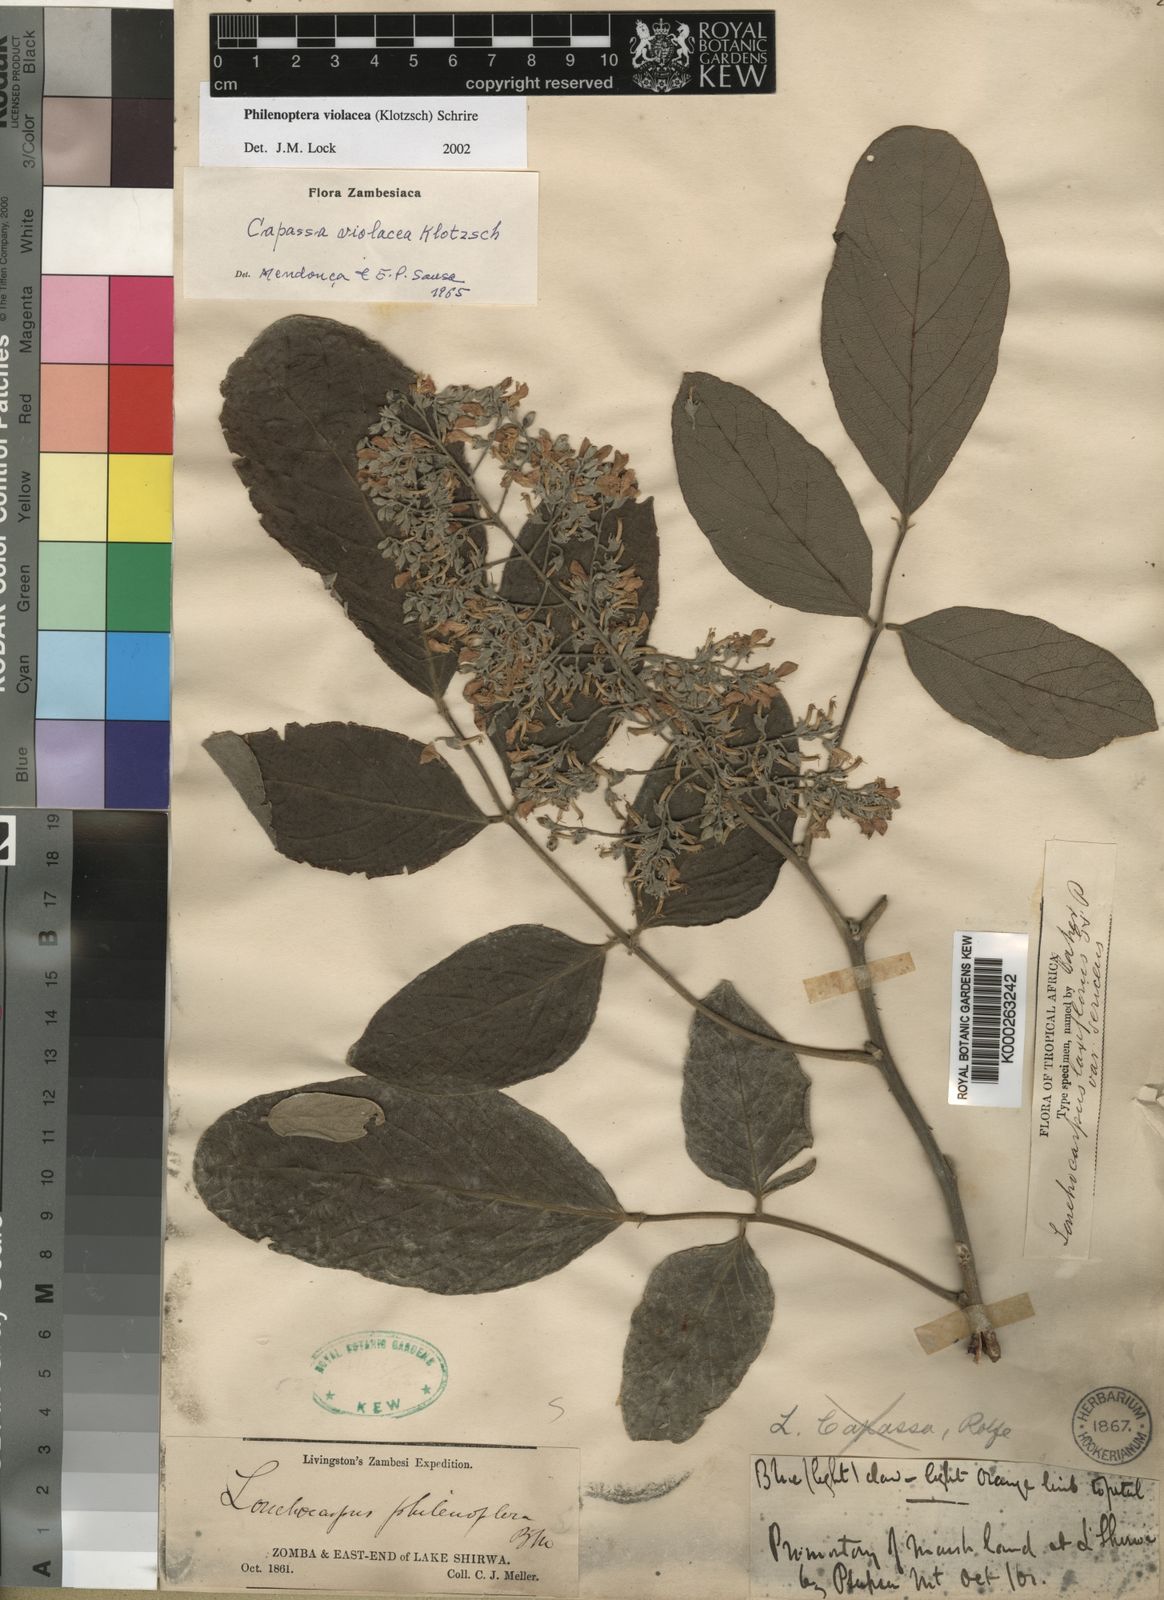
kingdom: Plantae
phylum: Tracheophyta
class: Magnoliopsida
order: Fabales
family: Fabaceae
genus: Philenoptera
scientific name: Philenoptera violacea
